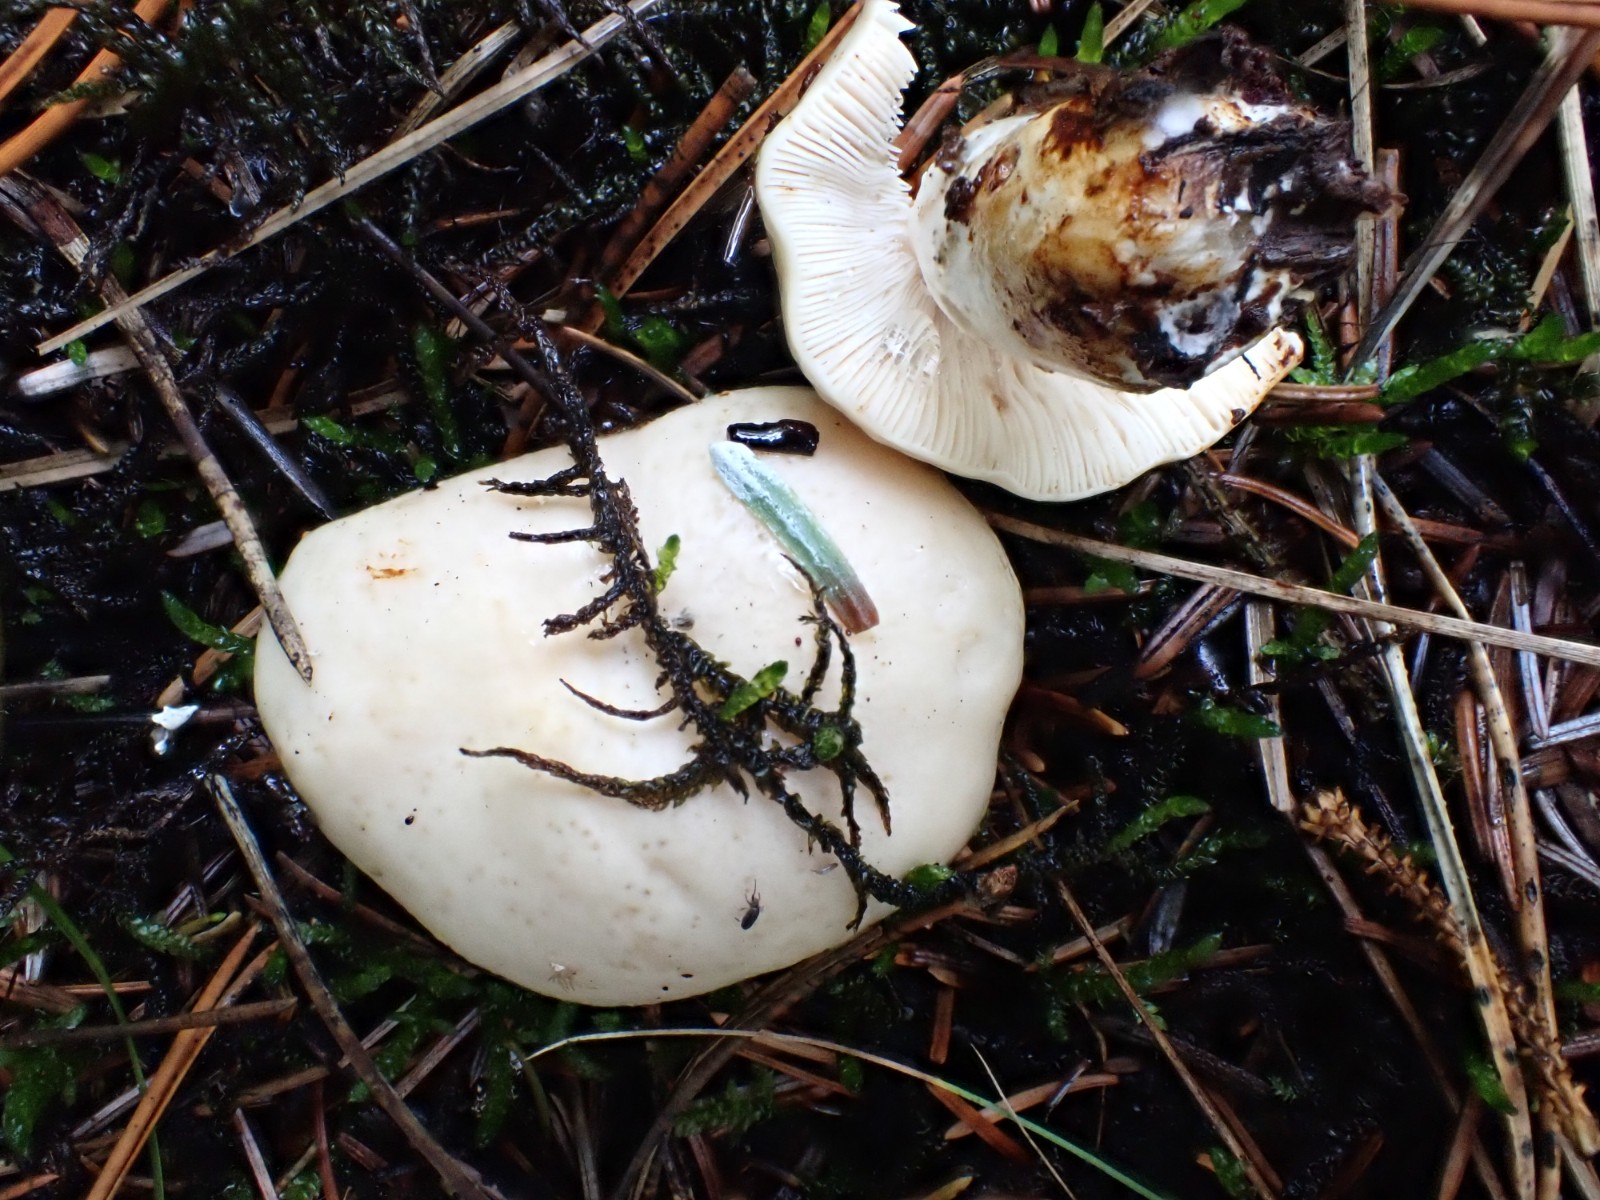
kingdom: Fungi
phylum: Basidiomycota
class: Agaricomycetes
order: Russulales
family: Russulaceae
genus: Russula
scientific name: Russula
